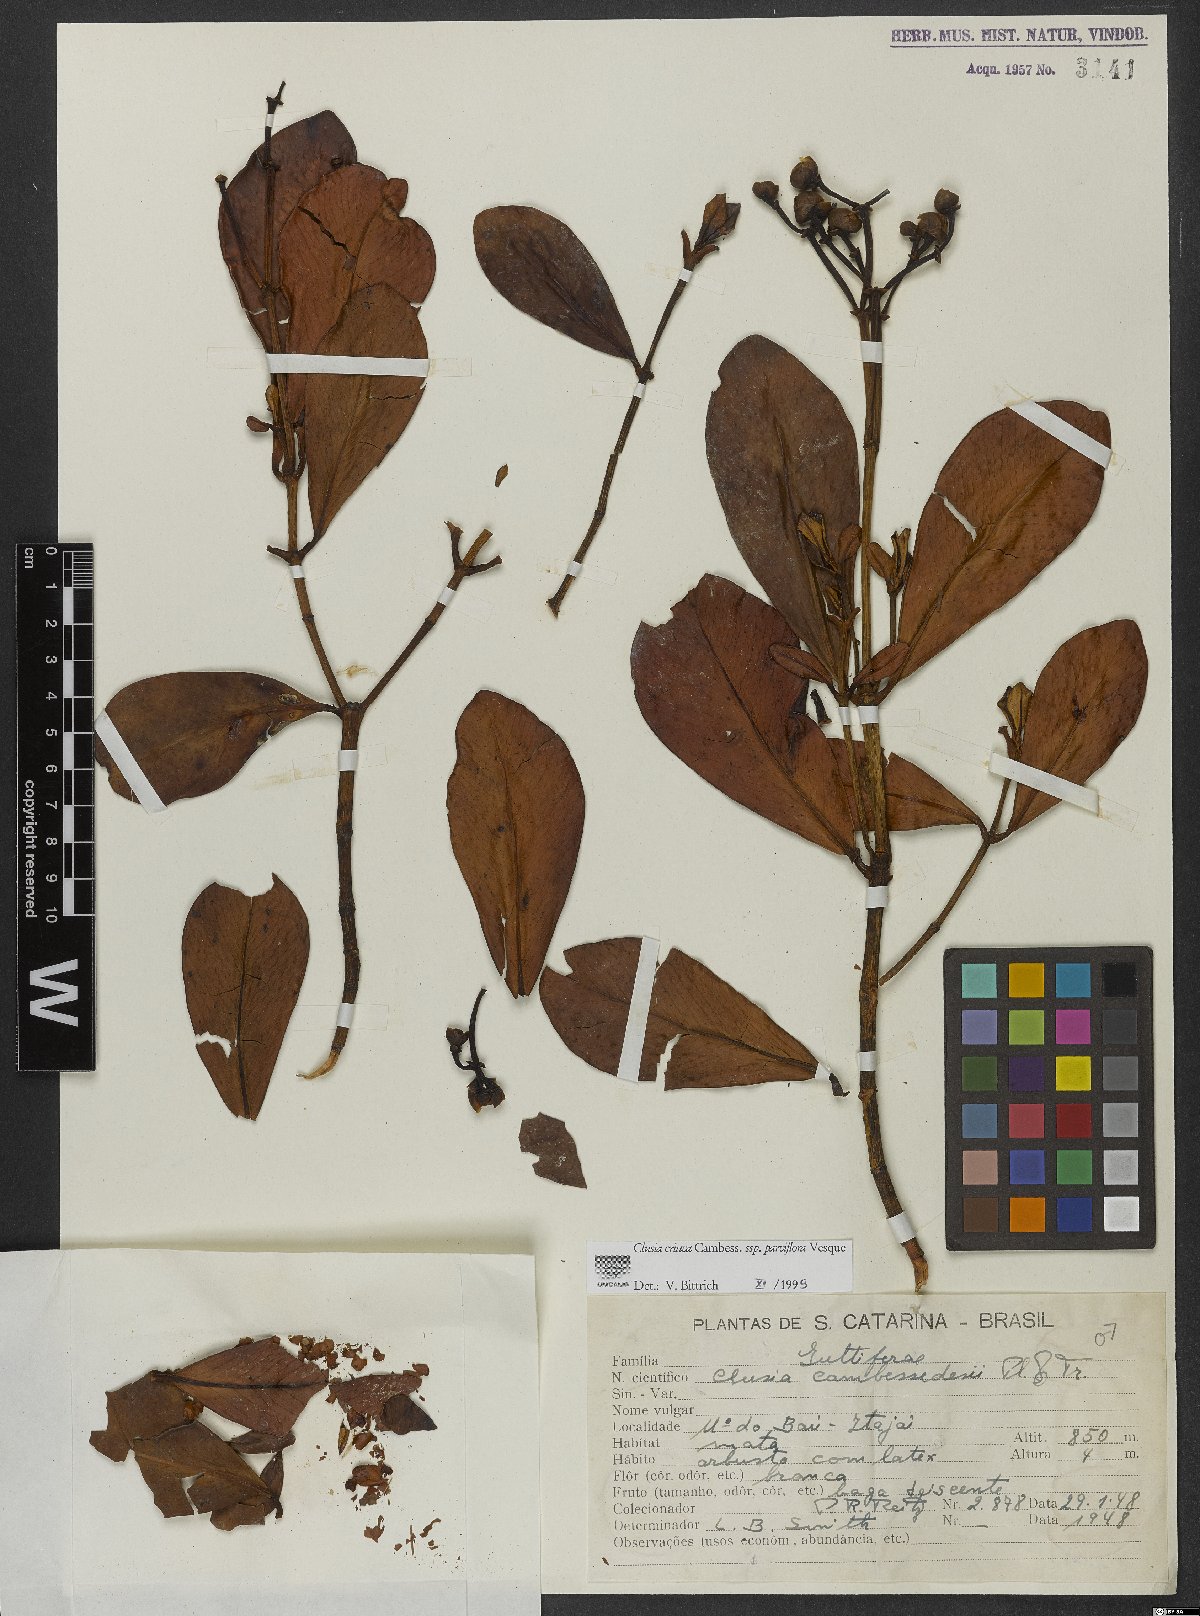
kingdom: Plantae
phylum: Tracheophyta
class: Magnoliopsida
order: Malpighiales
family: Clusiaceae
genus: Clusia
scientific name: Clusia criuva
